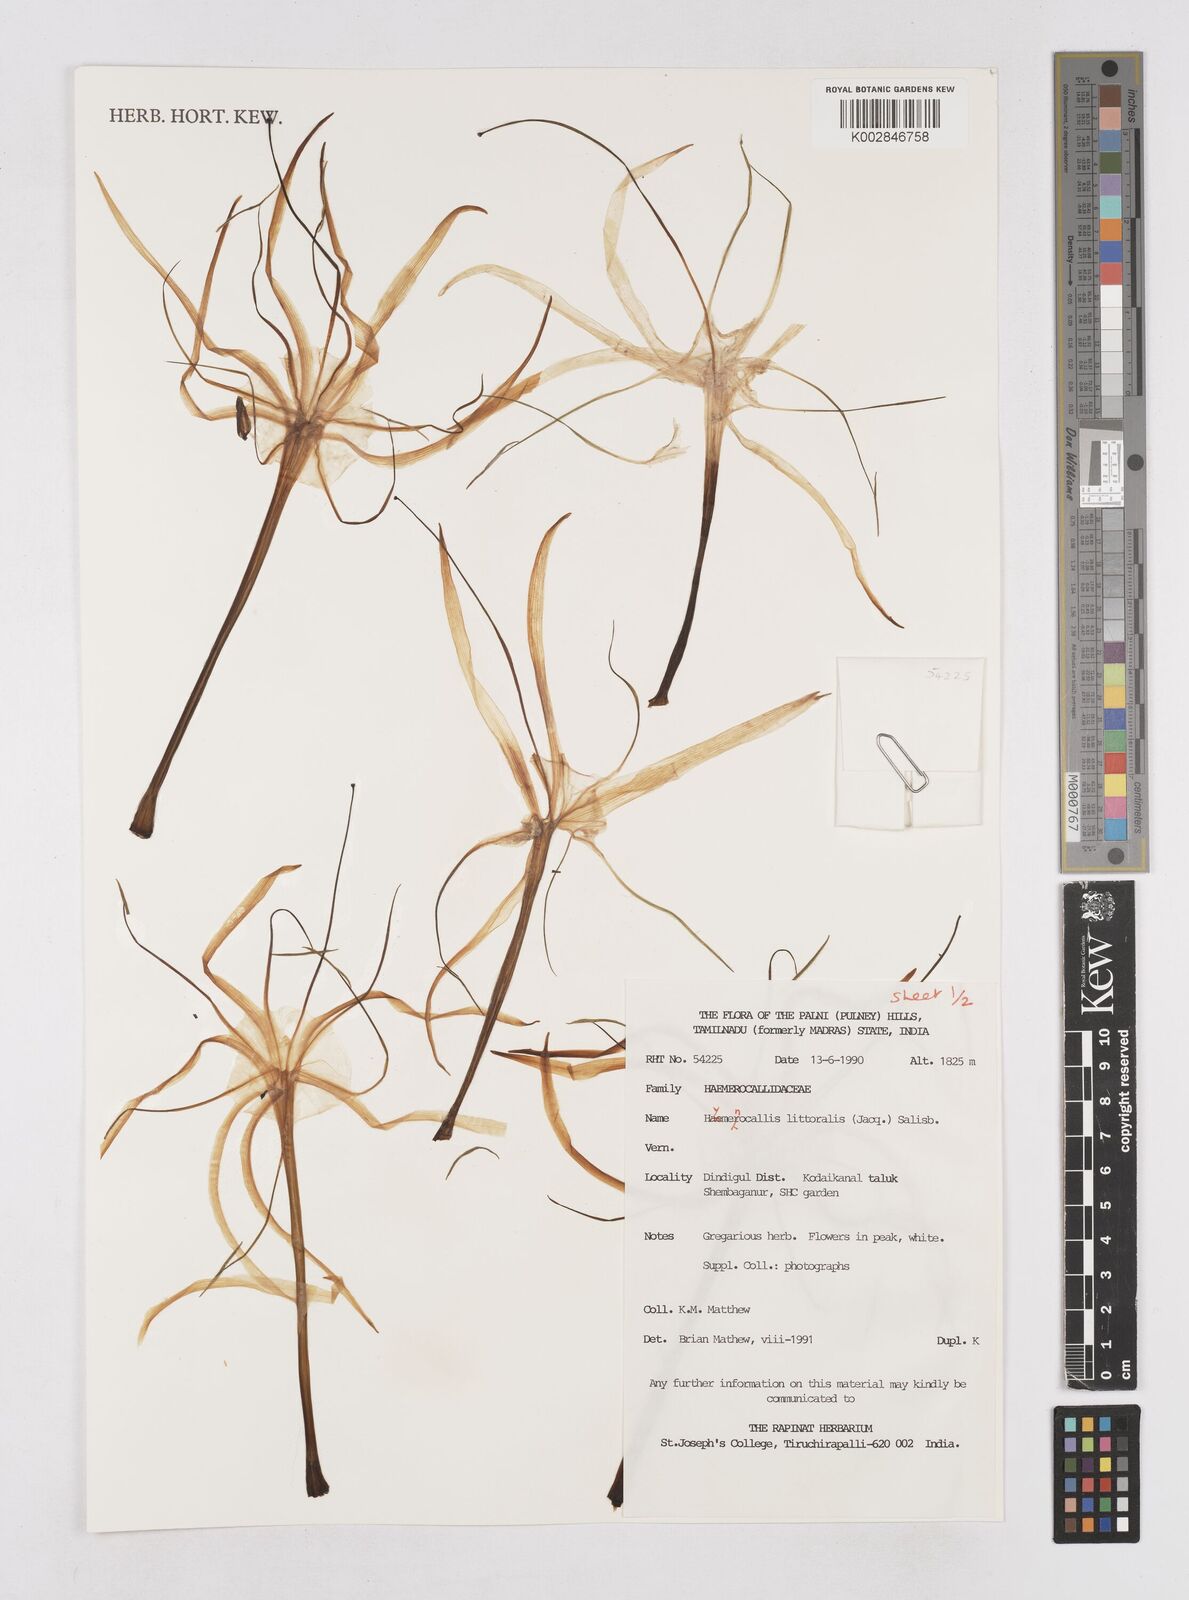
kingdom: Plantae
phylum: Tracheophyta
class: Liliopsida
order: Asparagales
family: Asphodelaceae
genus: Hemerocallis
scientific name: Hemerocallis
